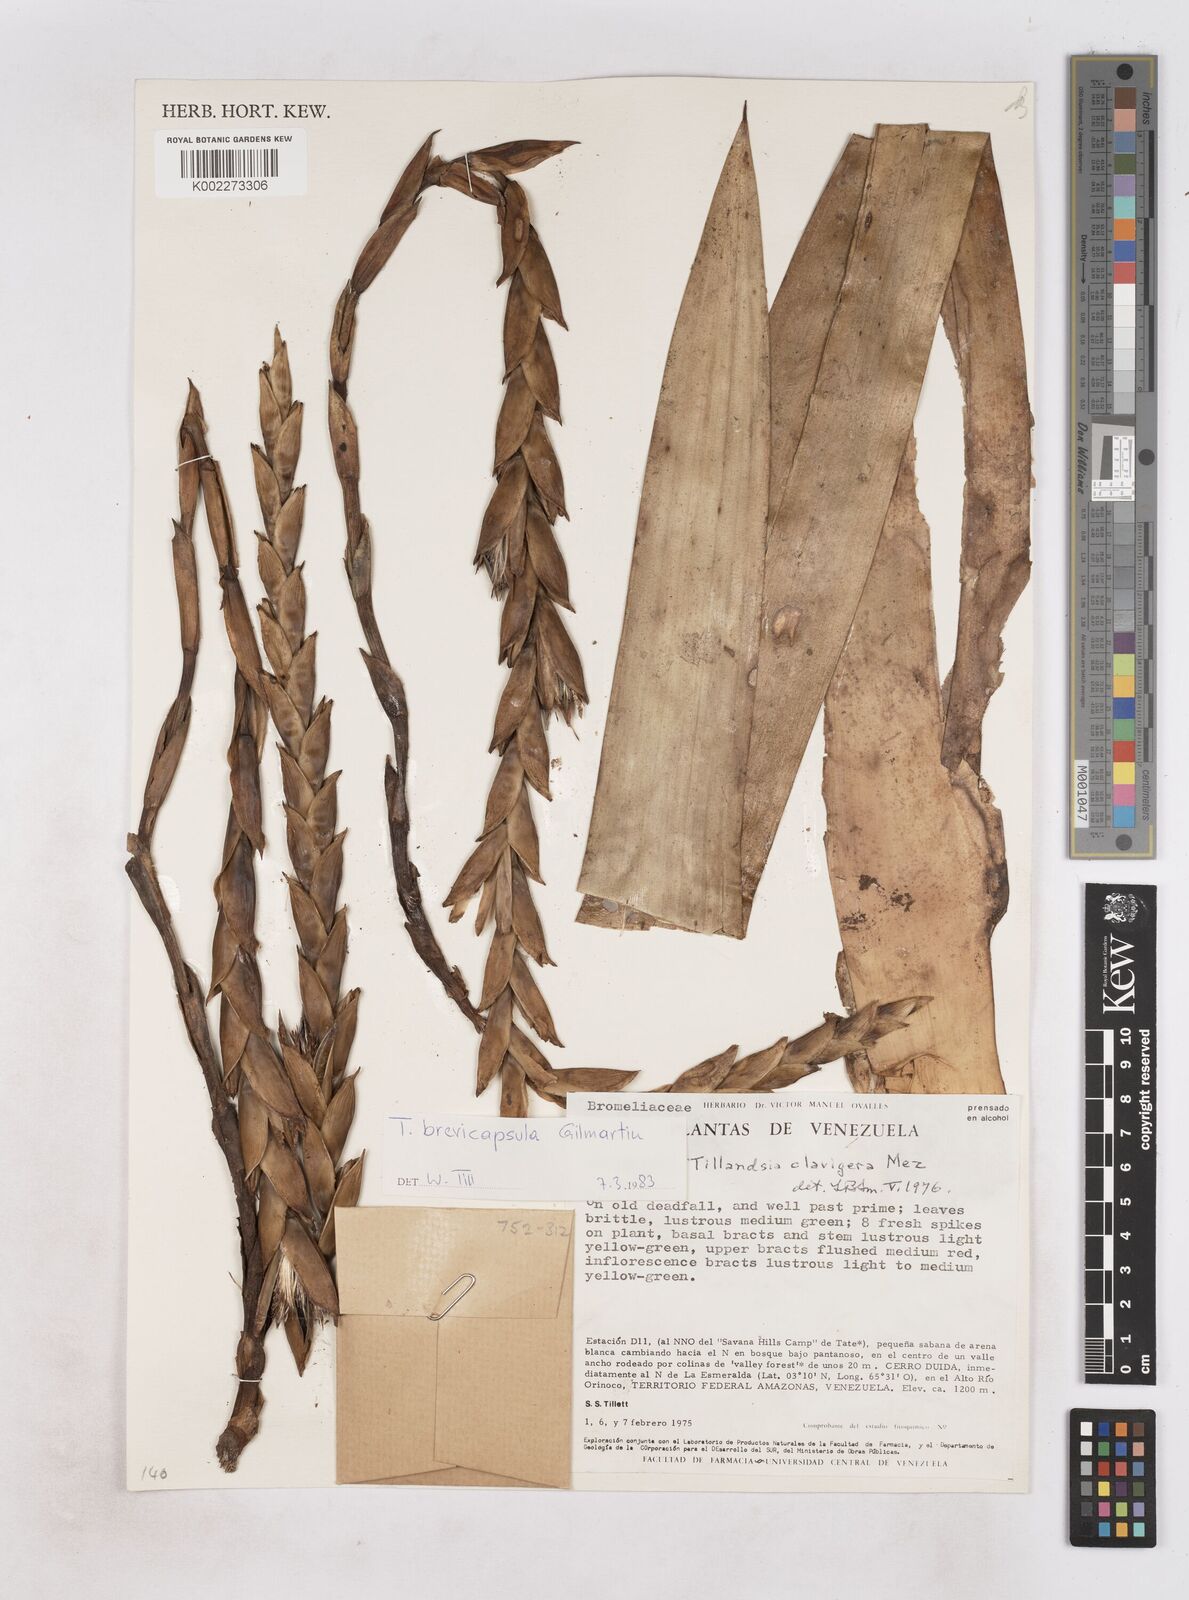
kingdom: Plantae
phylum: Tracheophyta
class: Liliopsida
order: Poales
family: Bromeliaceae
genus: Tillandsia
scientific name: Tillandsia brevicapsula
